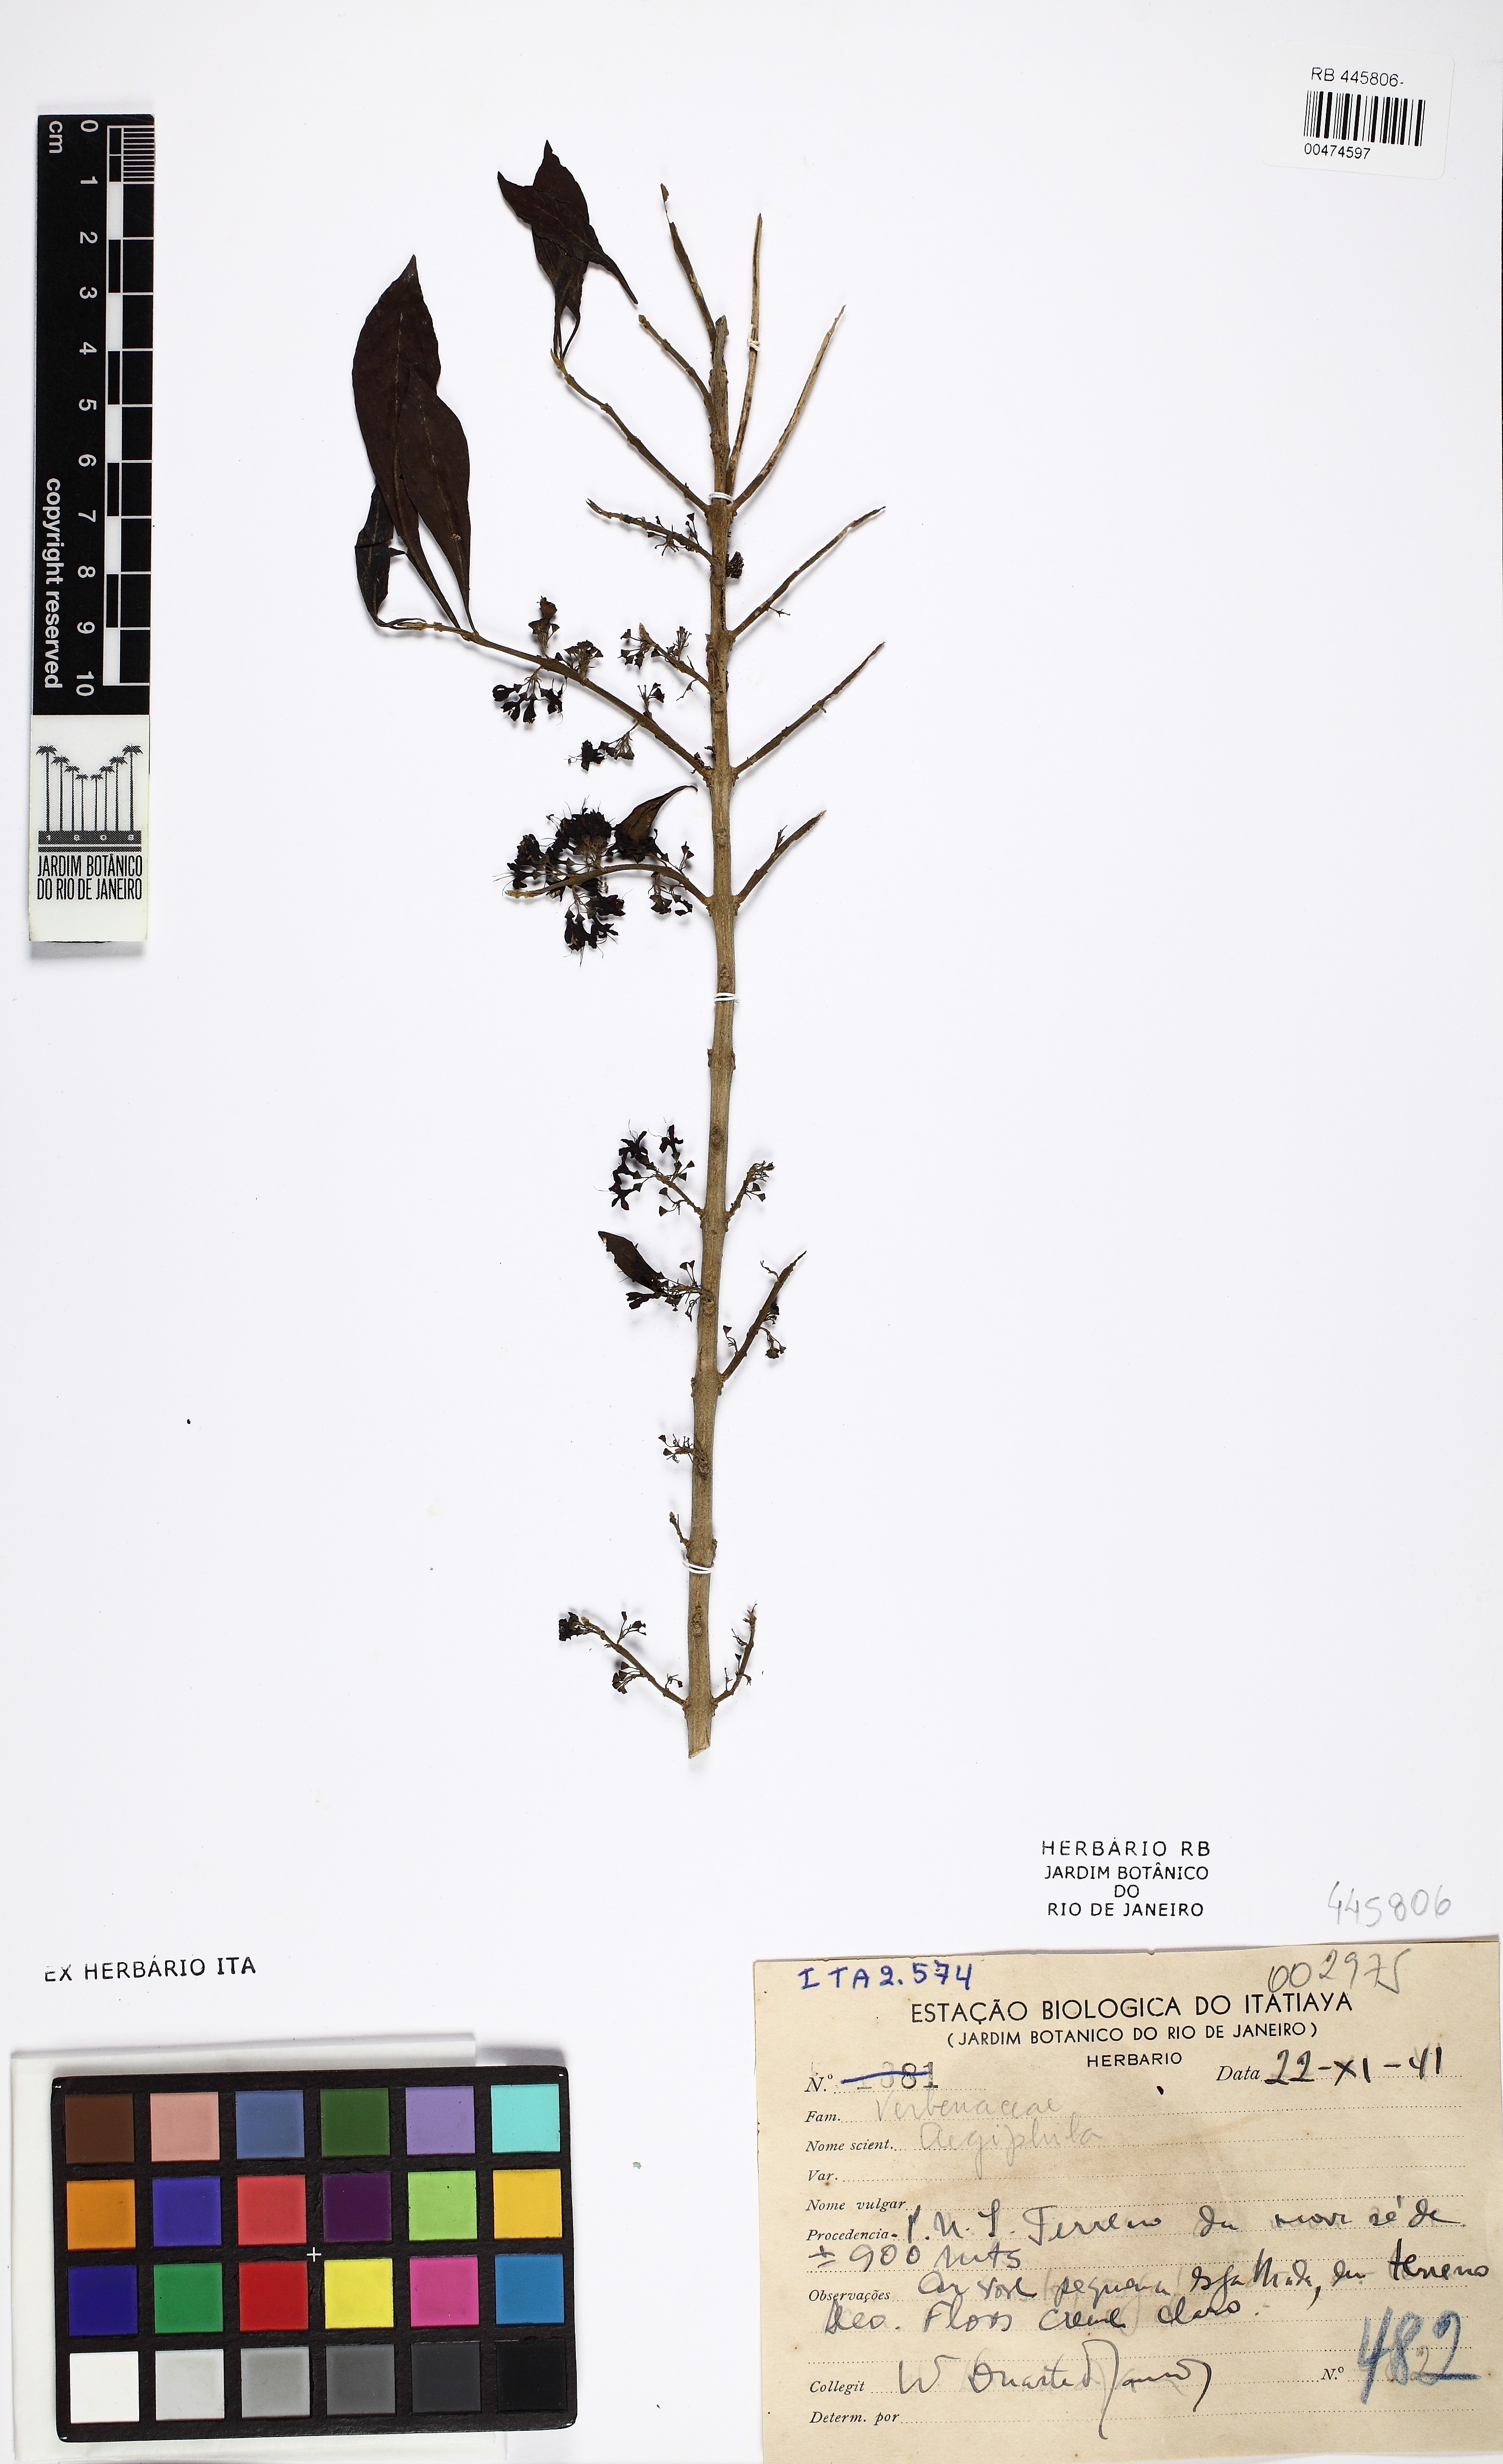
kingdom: Plantae
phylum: Tracheophyta
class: Magnoliopsida
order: Lamiales
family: Lamiaceae
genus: Aegiphila
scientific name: Aegiphila
